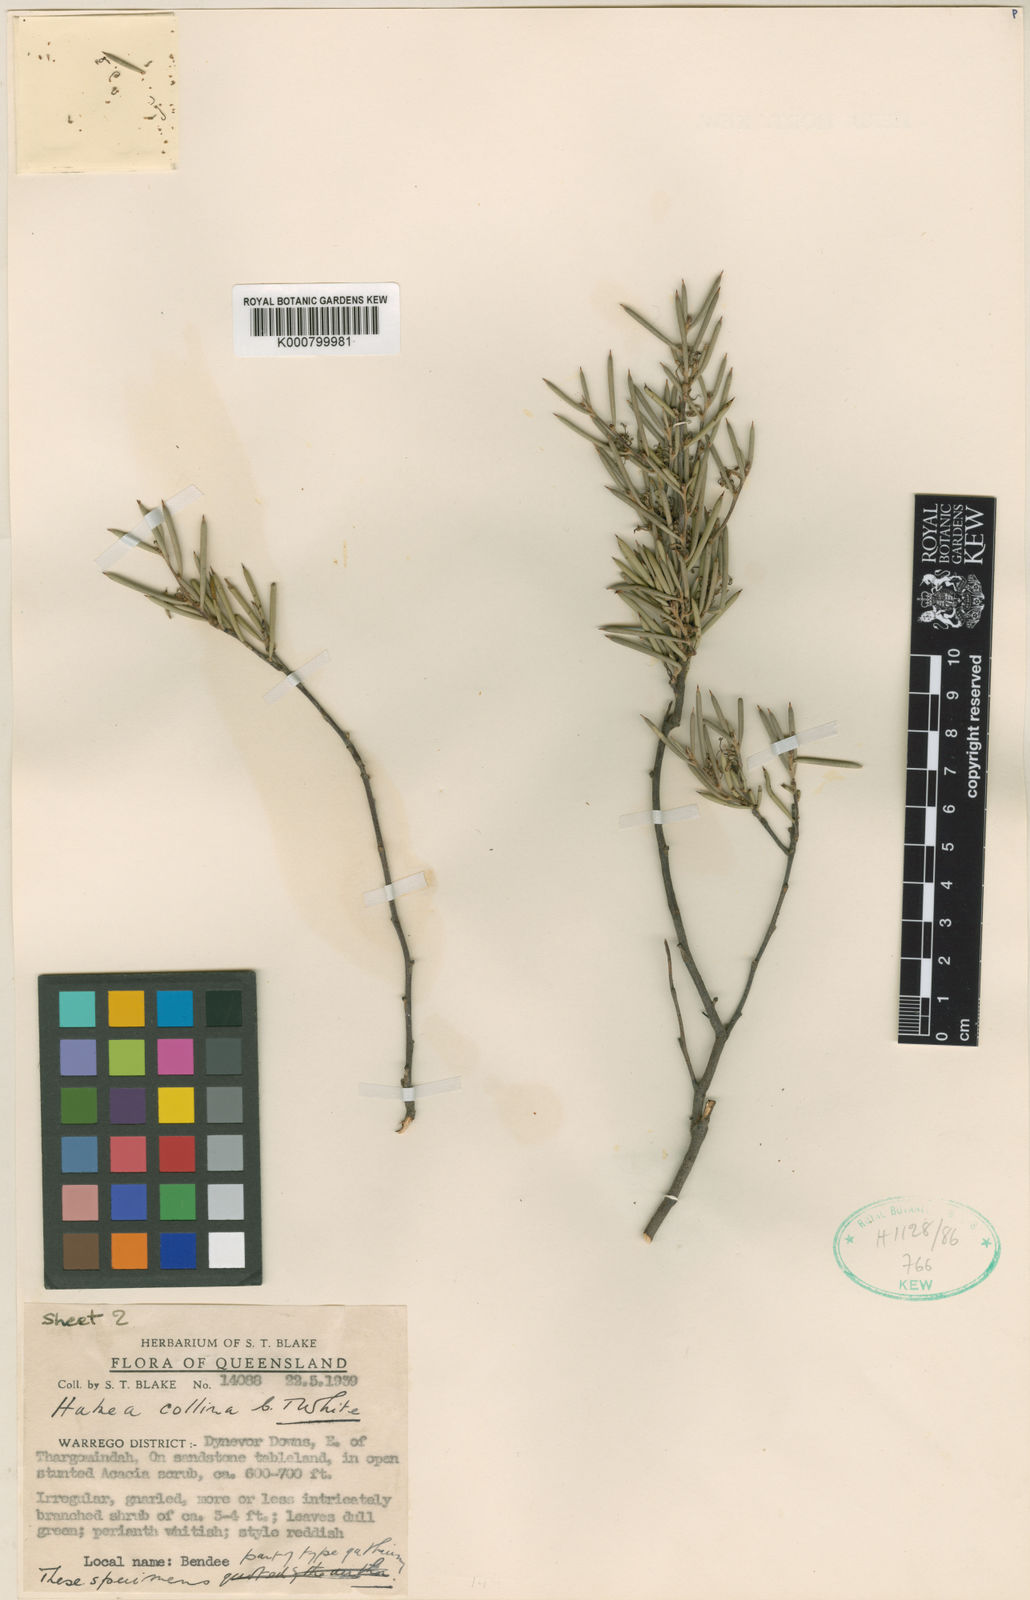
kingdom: Plantae
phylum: Tracheophyta
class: Magnoliopsida
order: Proteales
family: Proteaceae
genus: Hakea
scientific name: Hakea collina
